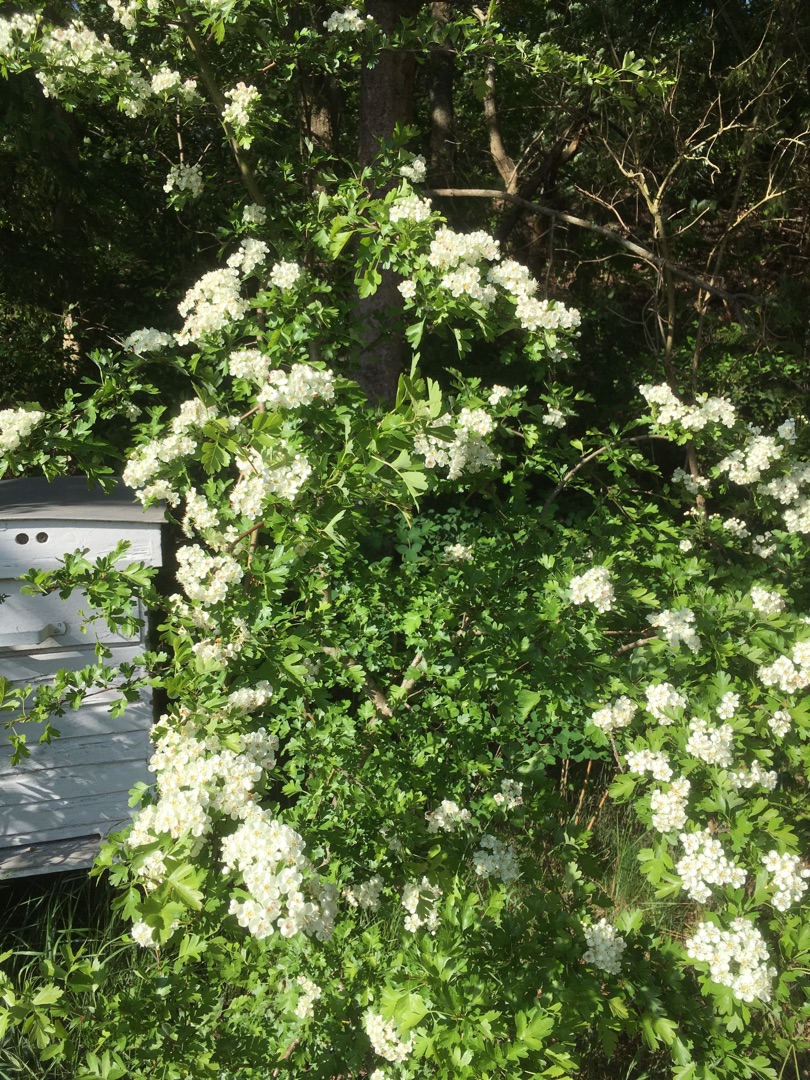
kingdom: Plantae
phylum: Tracheophyta
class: Magnoliopsida
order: Rosales
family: Rosaceae
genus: Crataegus
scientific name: Crataegus monogyna
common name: Engriflet hvidtjørn
